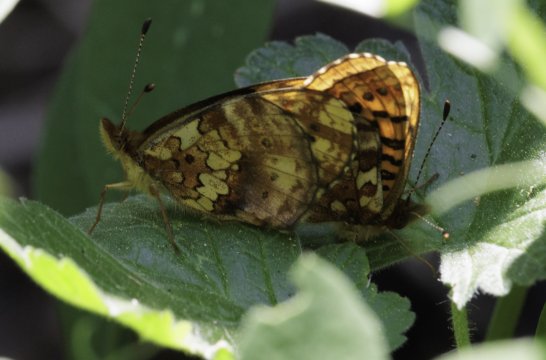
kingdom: Animalia
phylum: Arthropoda
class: Insecta
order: Lepidoptera
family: Nymphalidae
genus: Boloria
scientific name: Boloria epithore
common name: Pacific Fritillary
